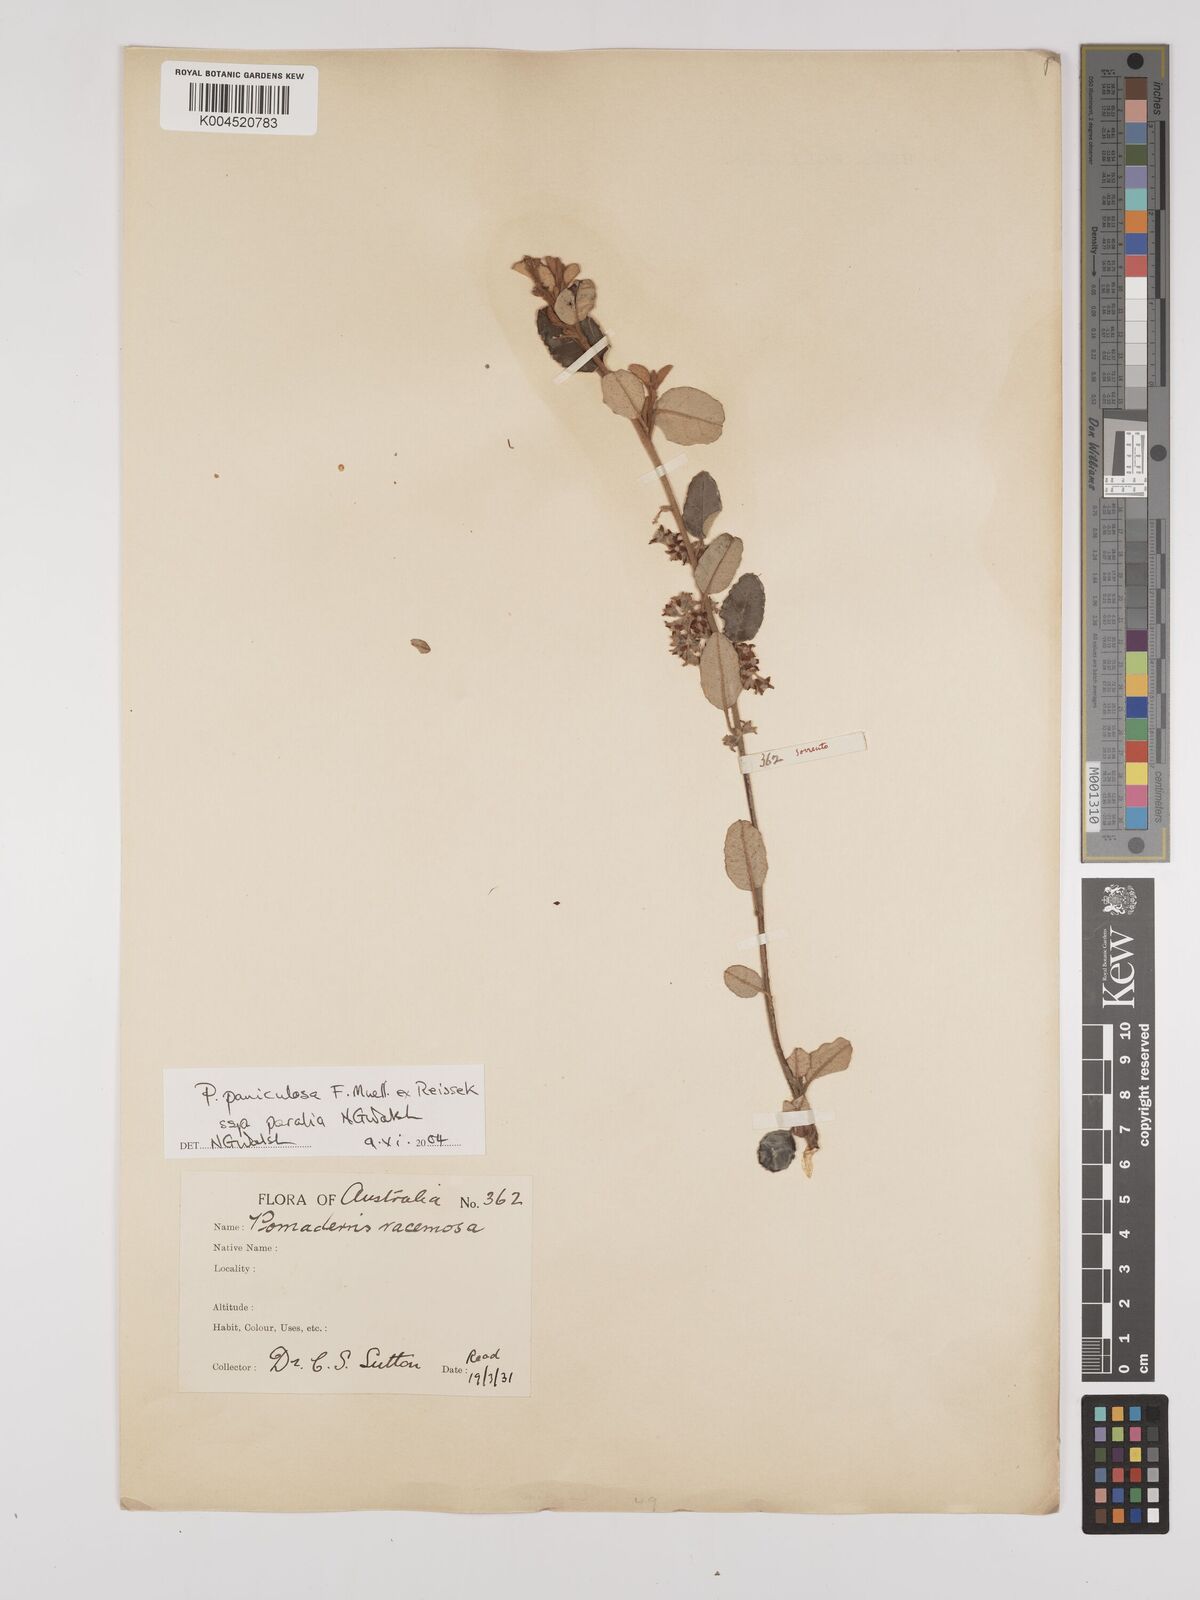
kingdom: Plantae
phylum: Tracheophyta
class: Magnoliopsida
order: Rosales
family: Rhamnaceae
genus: Pomaderris
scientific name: Pomaderris paniculosa
